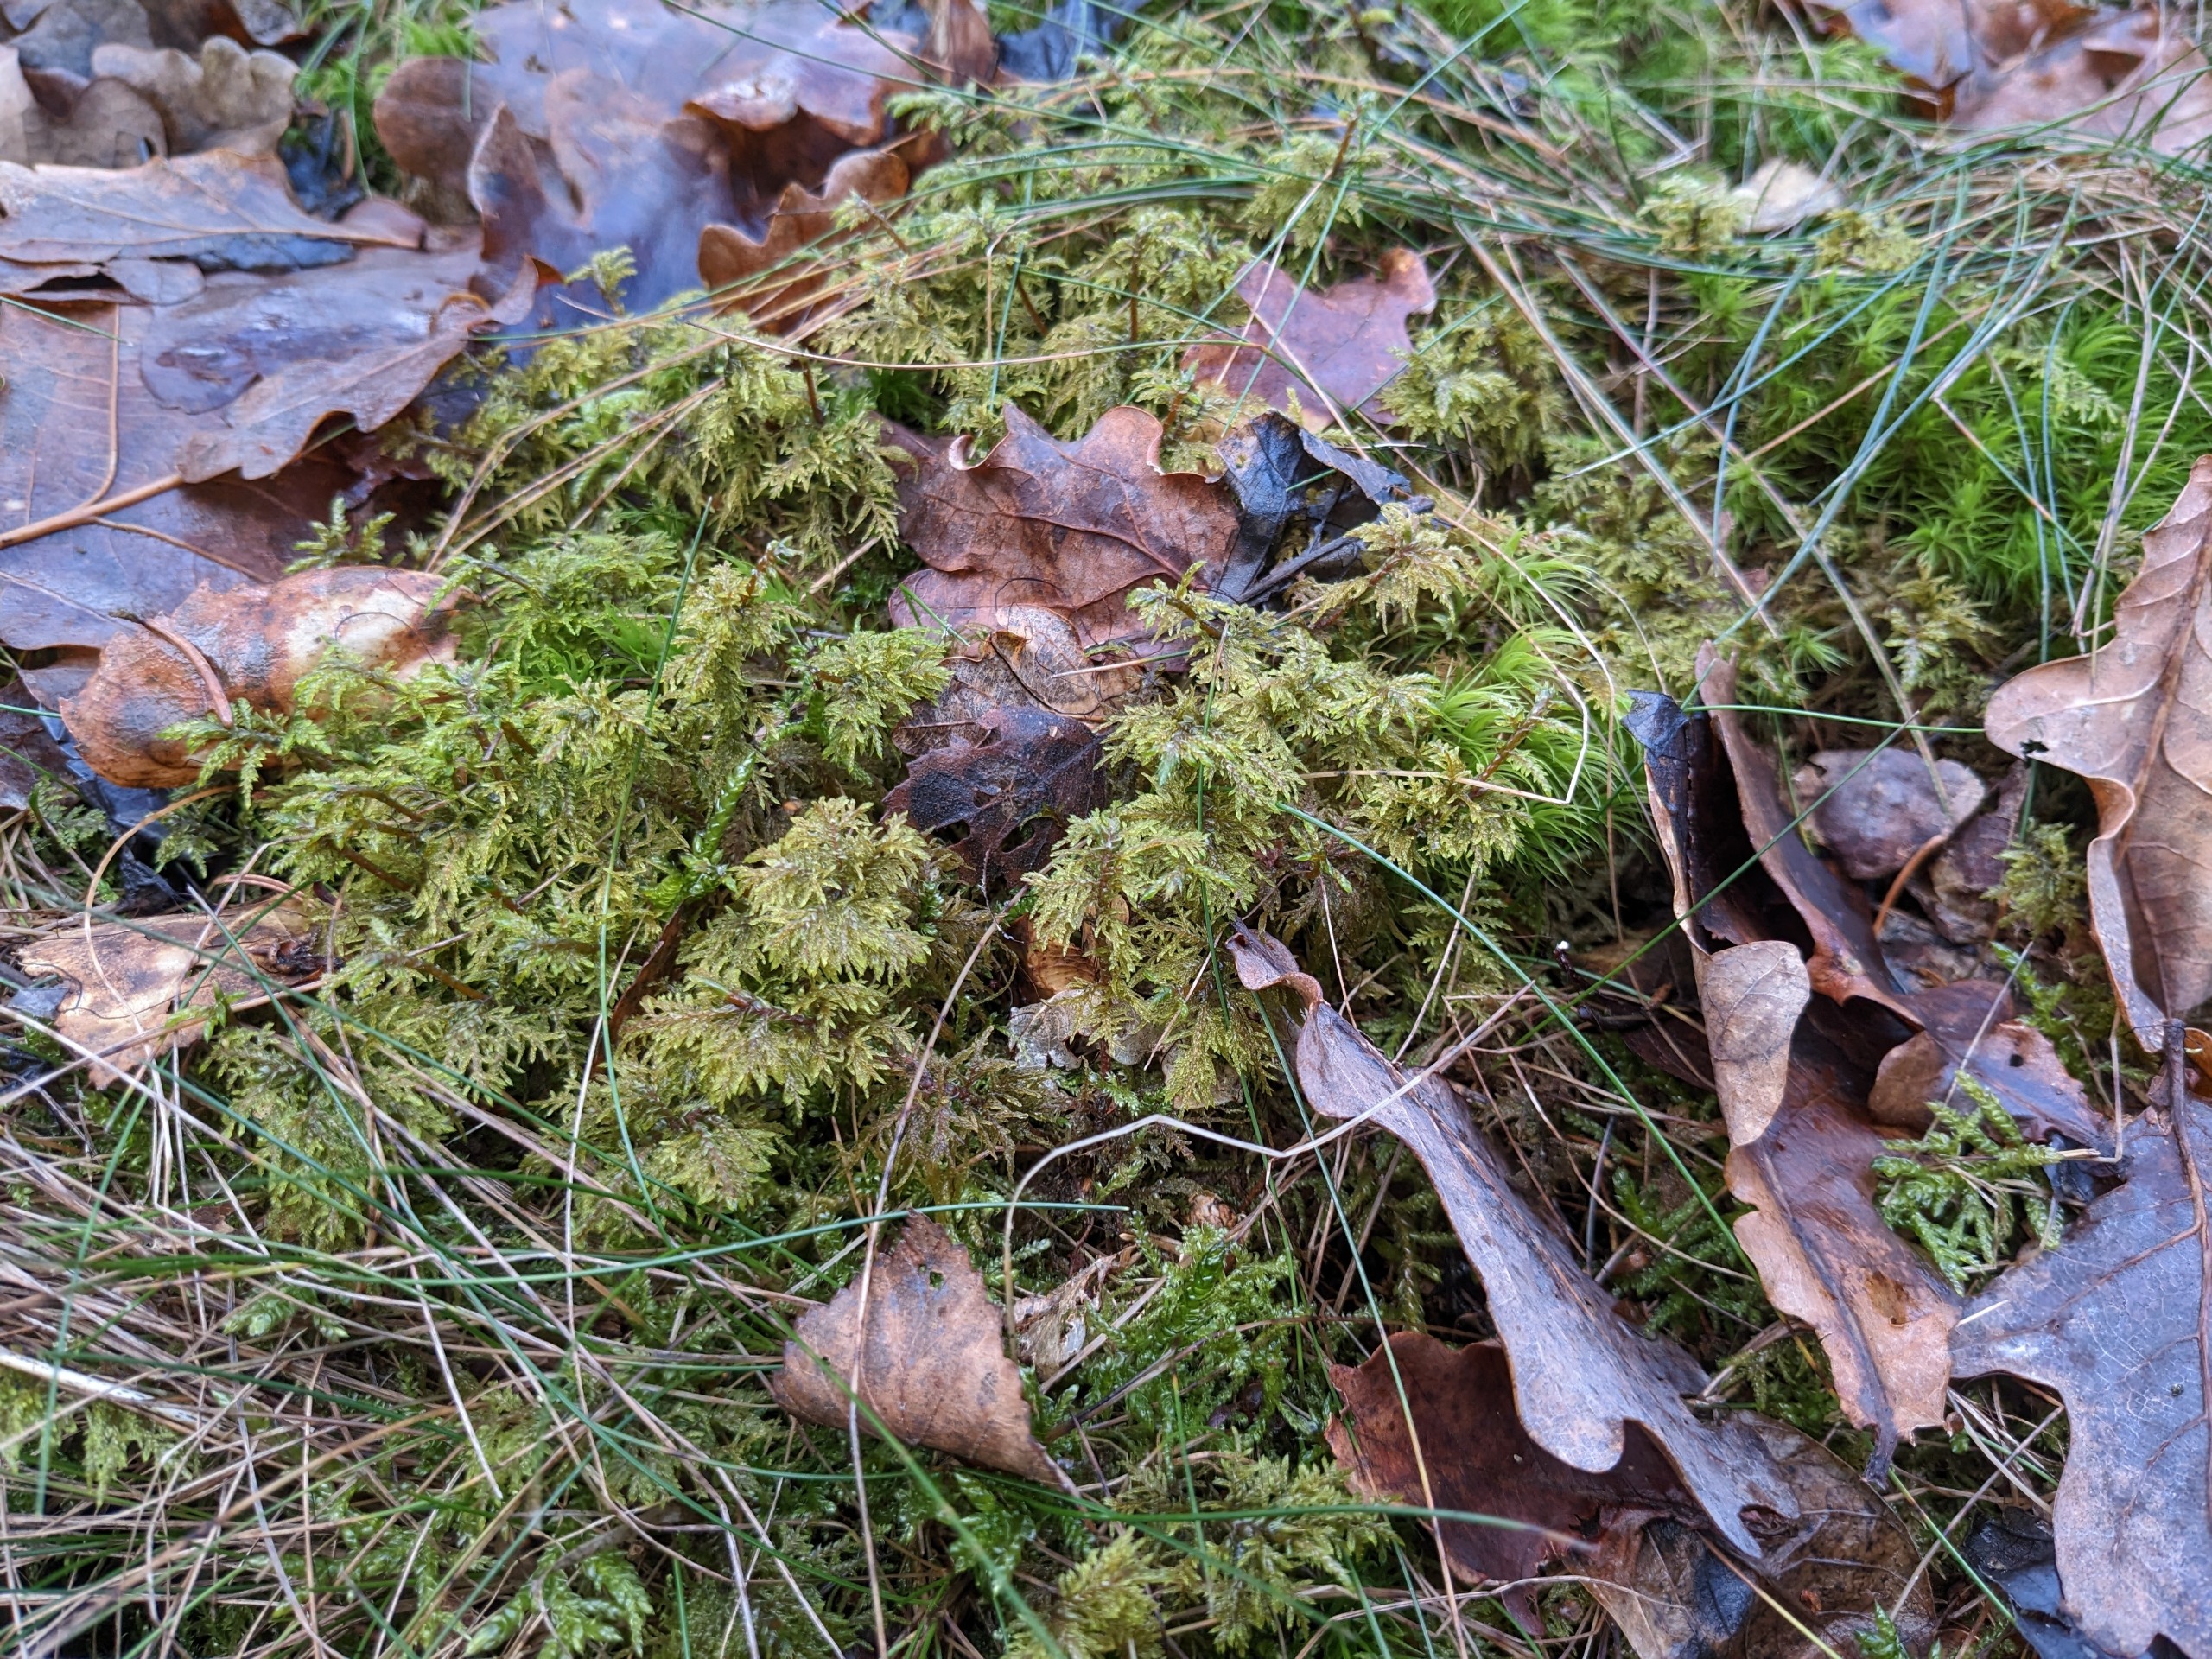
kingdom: Plantae
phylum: Bryophyta
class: Bryopsida
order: Hypnales
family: Hylocomiaceae
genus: Hylocomium
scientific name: Hylocomium splendens
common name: Almindelig etagemos
